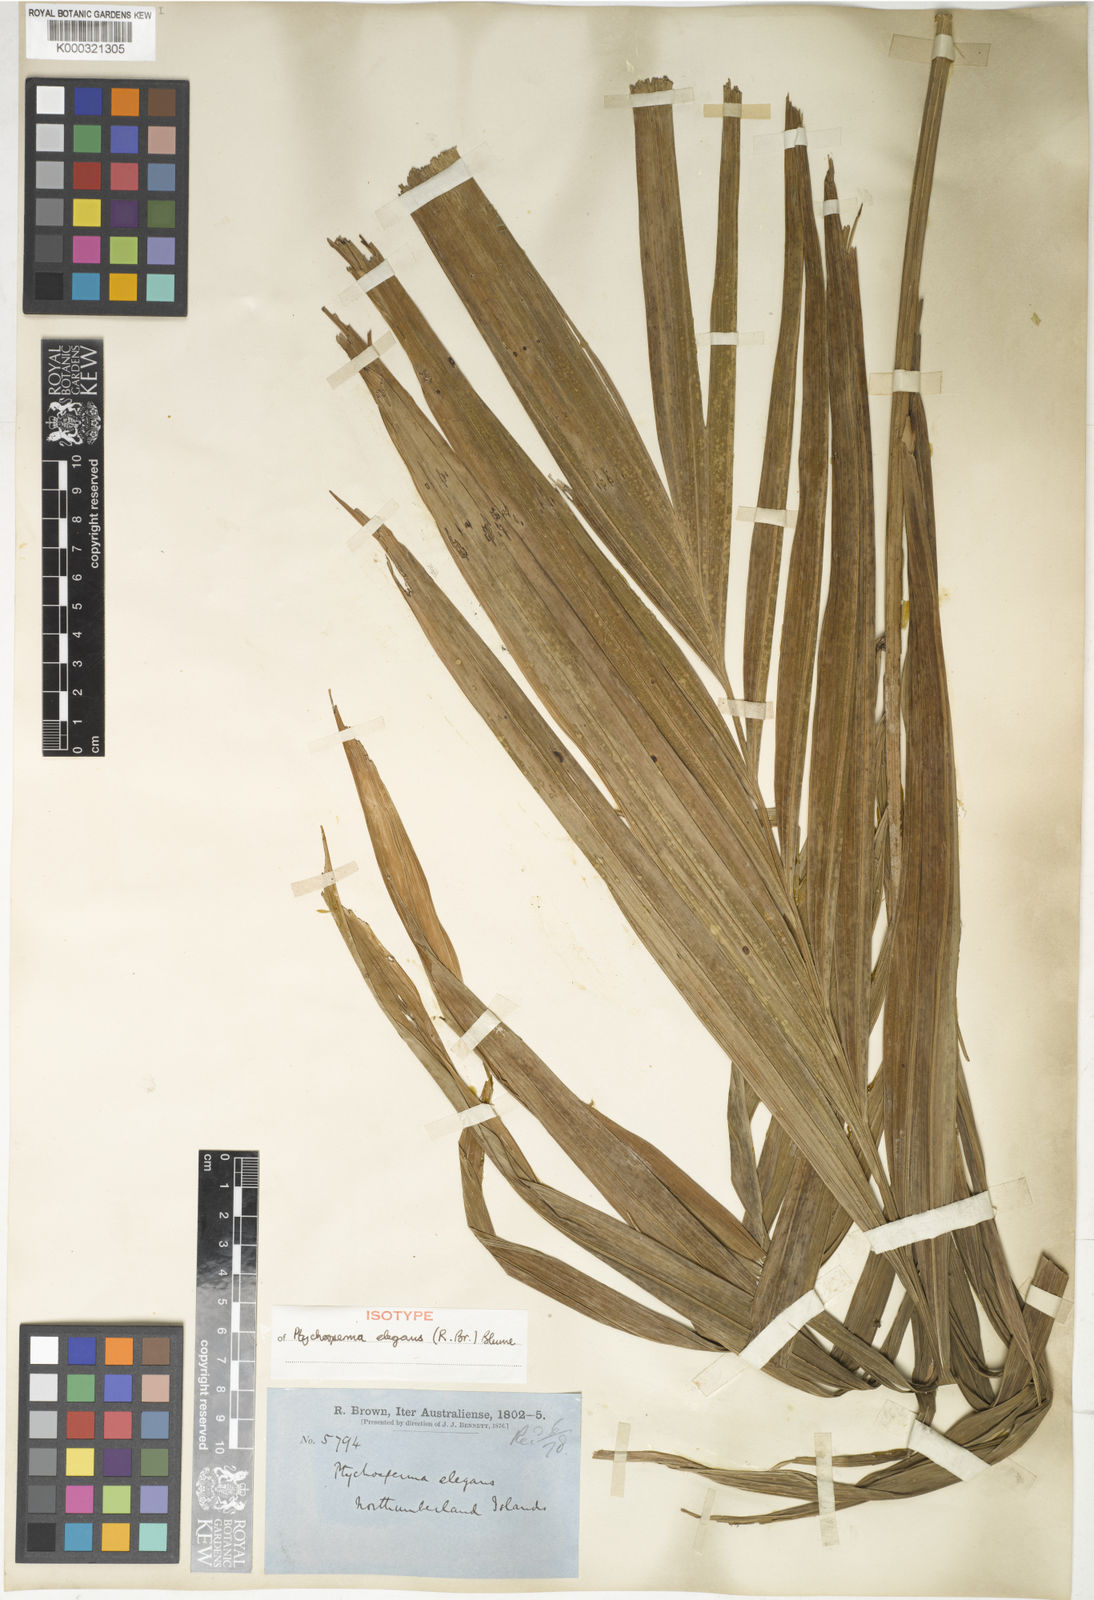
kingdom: Plantae
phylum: Tracheophyta
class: Liliopsida
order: Arecales
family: Arecaceae
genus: Ptychosperma
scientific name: Ptychosperma elegans
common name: Alexander palm
